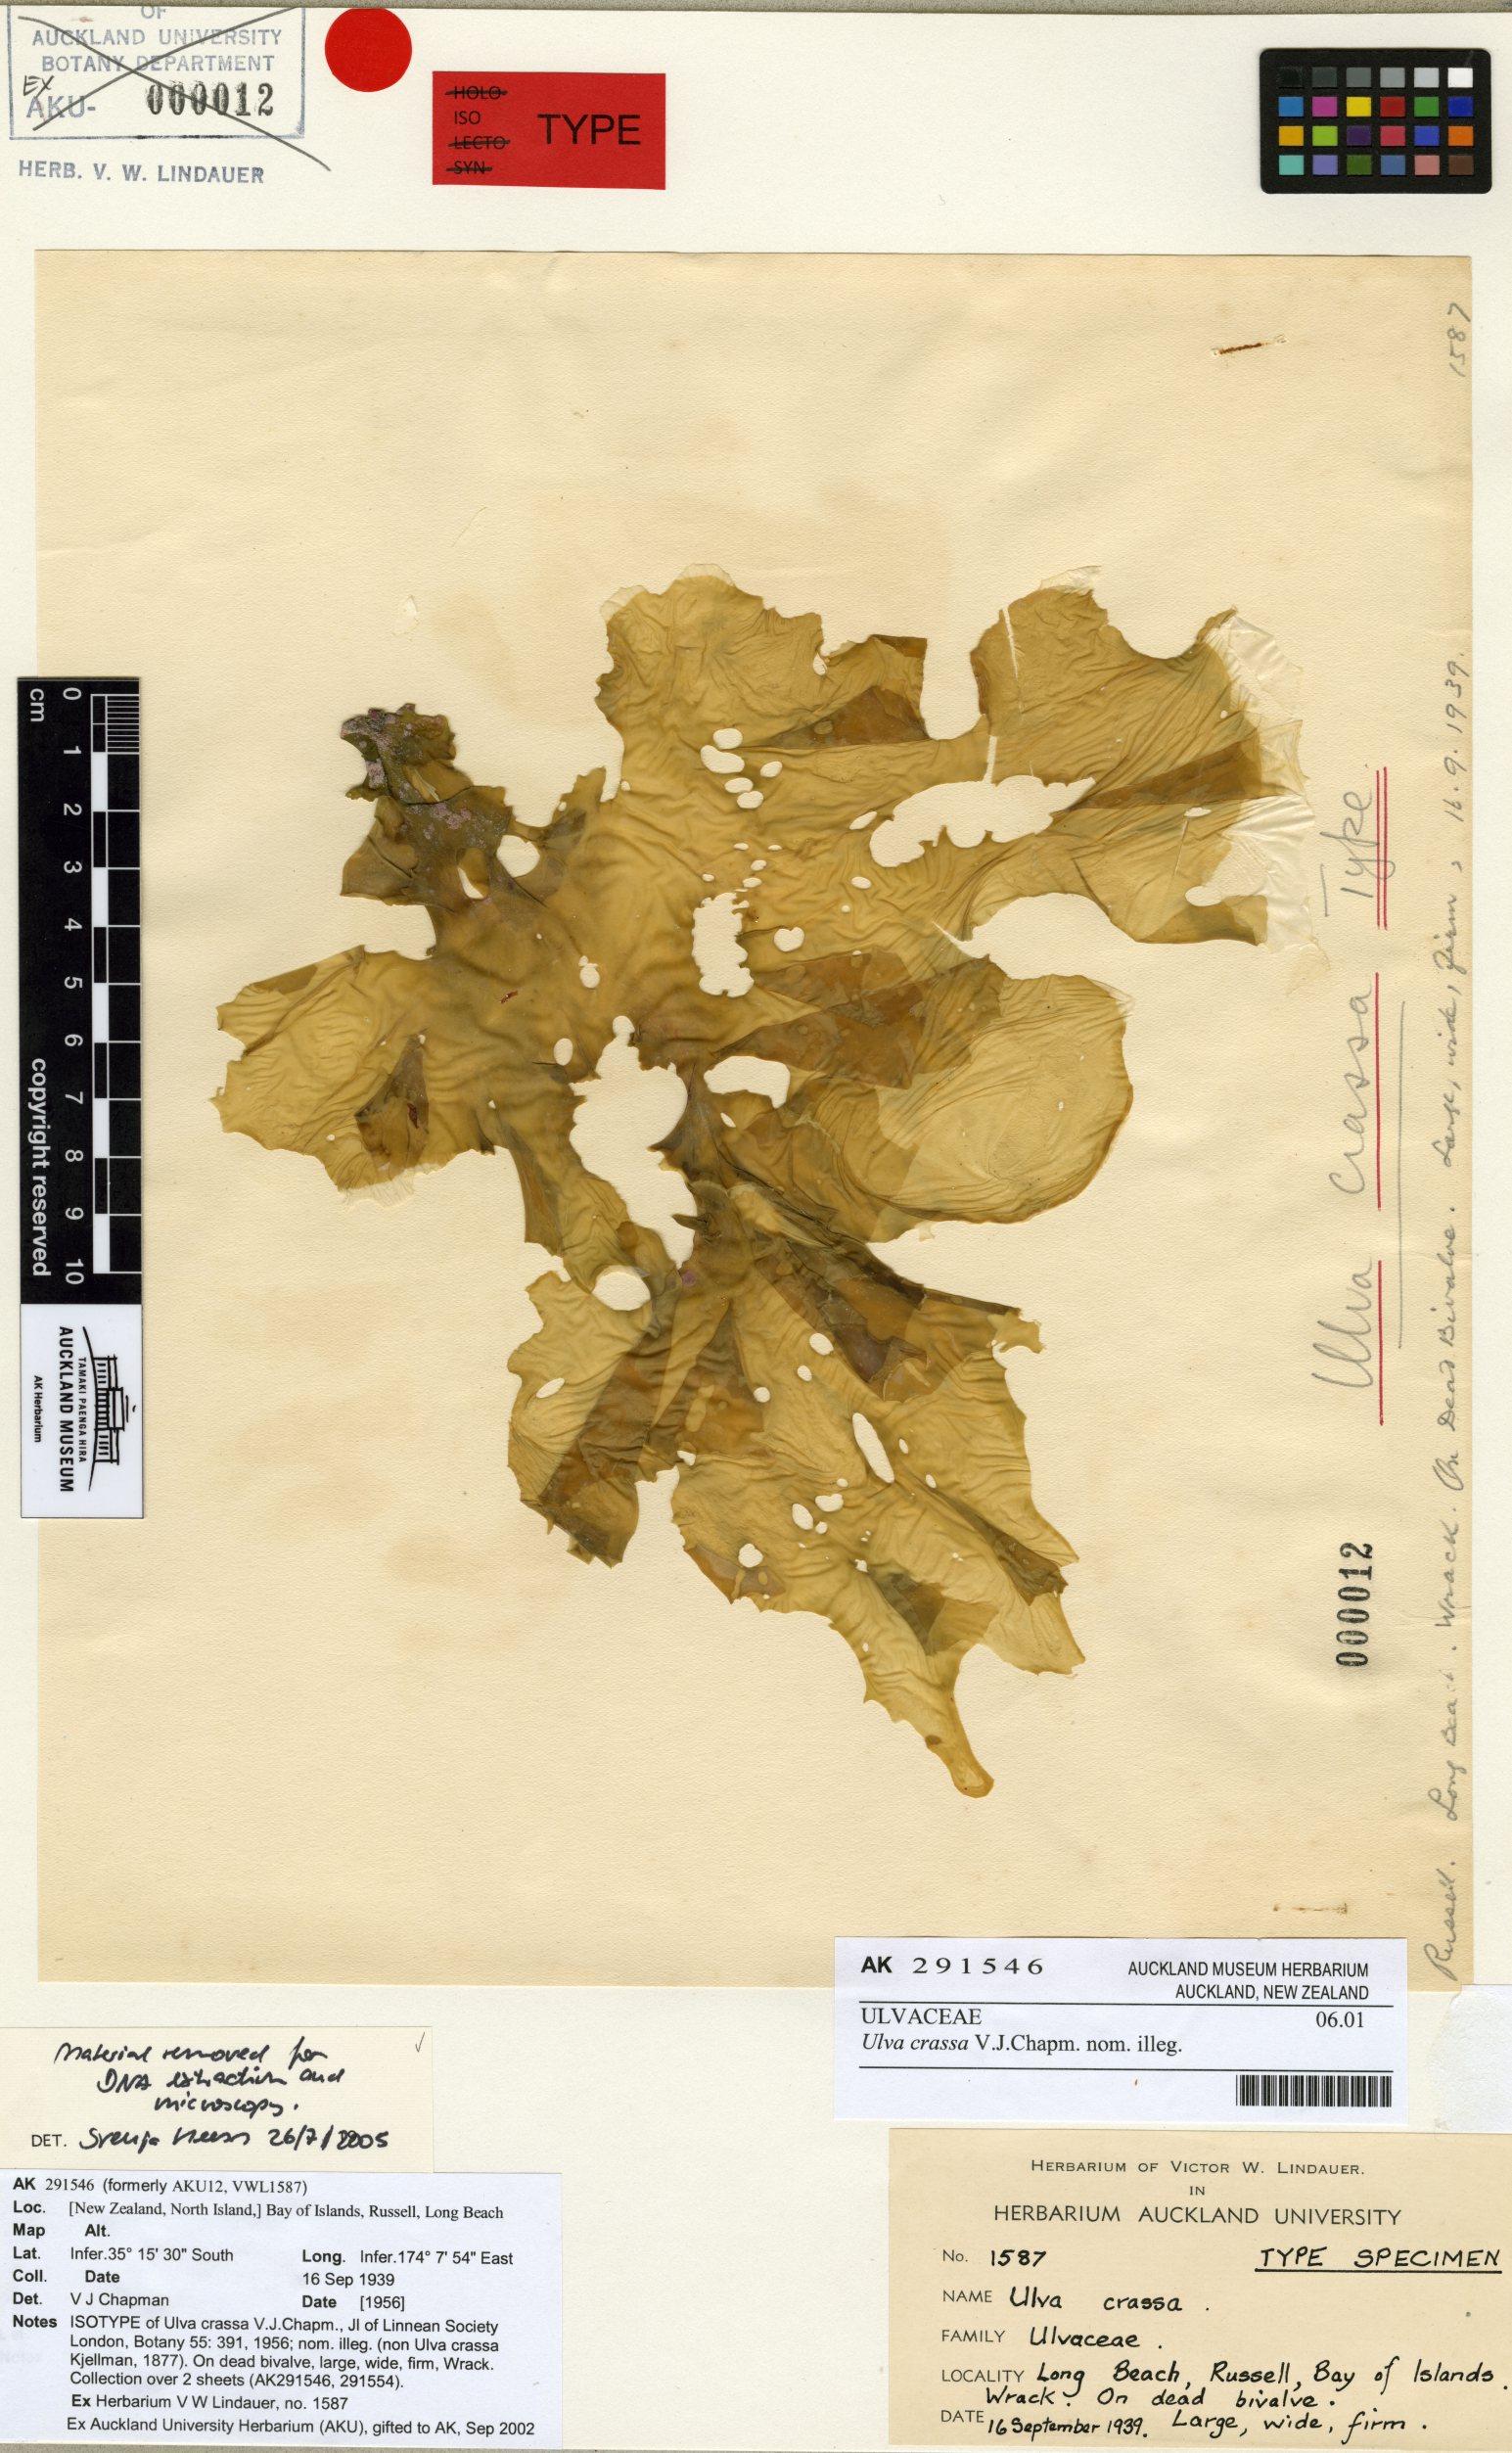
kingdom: Plantae
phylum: Chlorophyta
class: Ulvophyceae
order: Ulvales
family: Ulvaceae
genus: Ulva
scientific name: Ulva lactuca
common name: Sea lettuce
